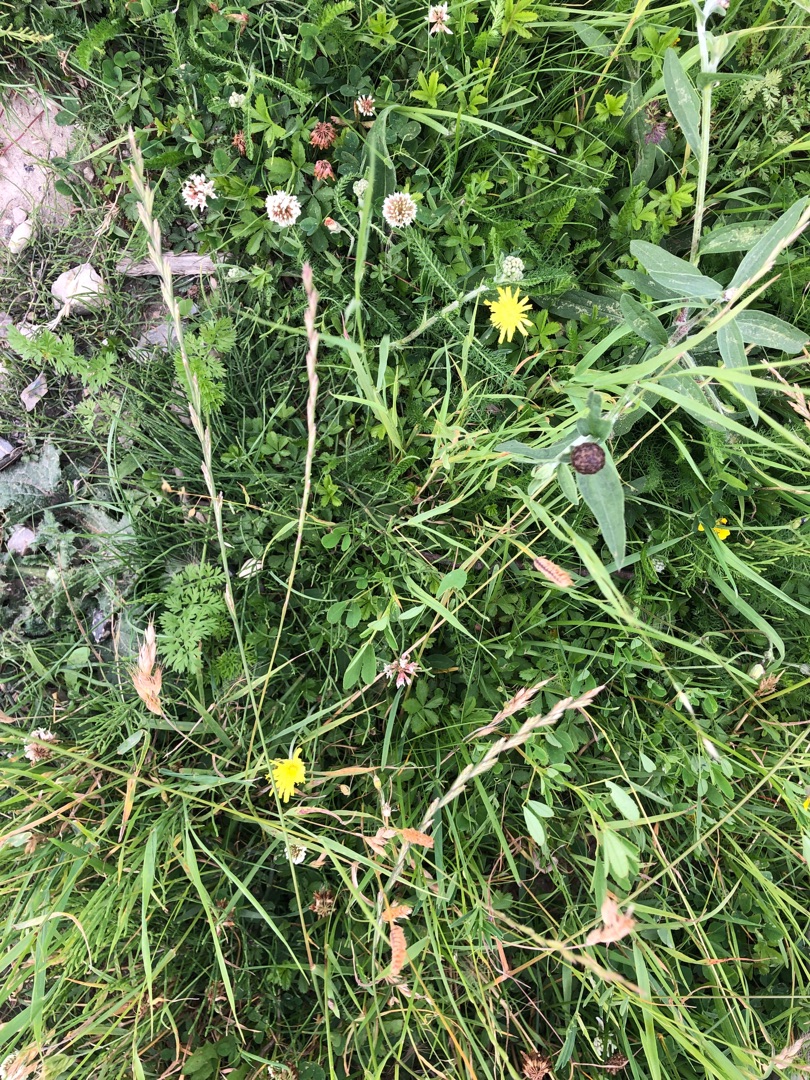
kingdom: Plantae
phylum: Tracheophyta
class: Magnoliopsida
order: Asterales
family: Asteraceae
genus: Pilosella
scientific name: Pilosella officinarum
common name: Håret høgeurt
